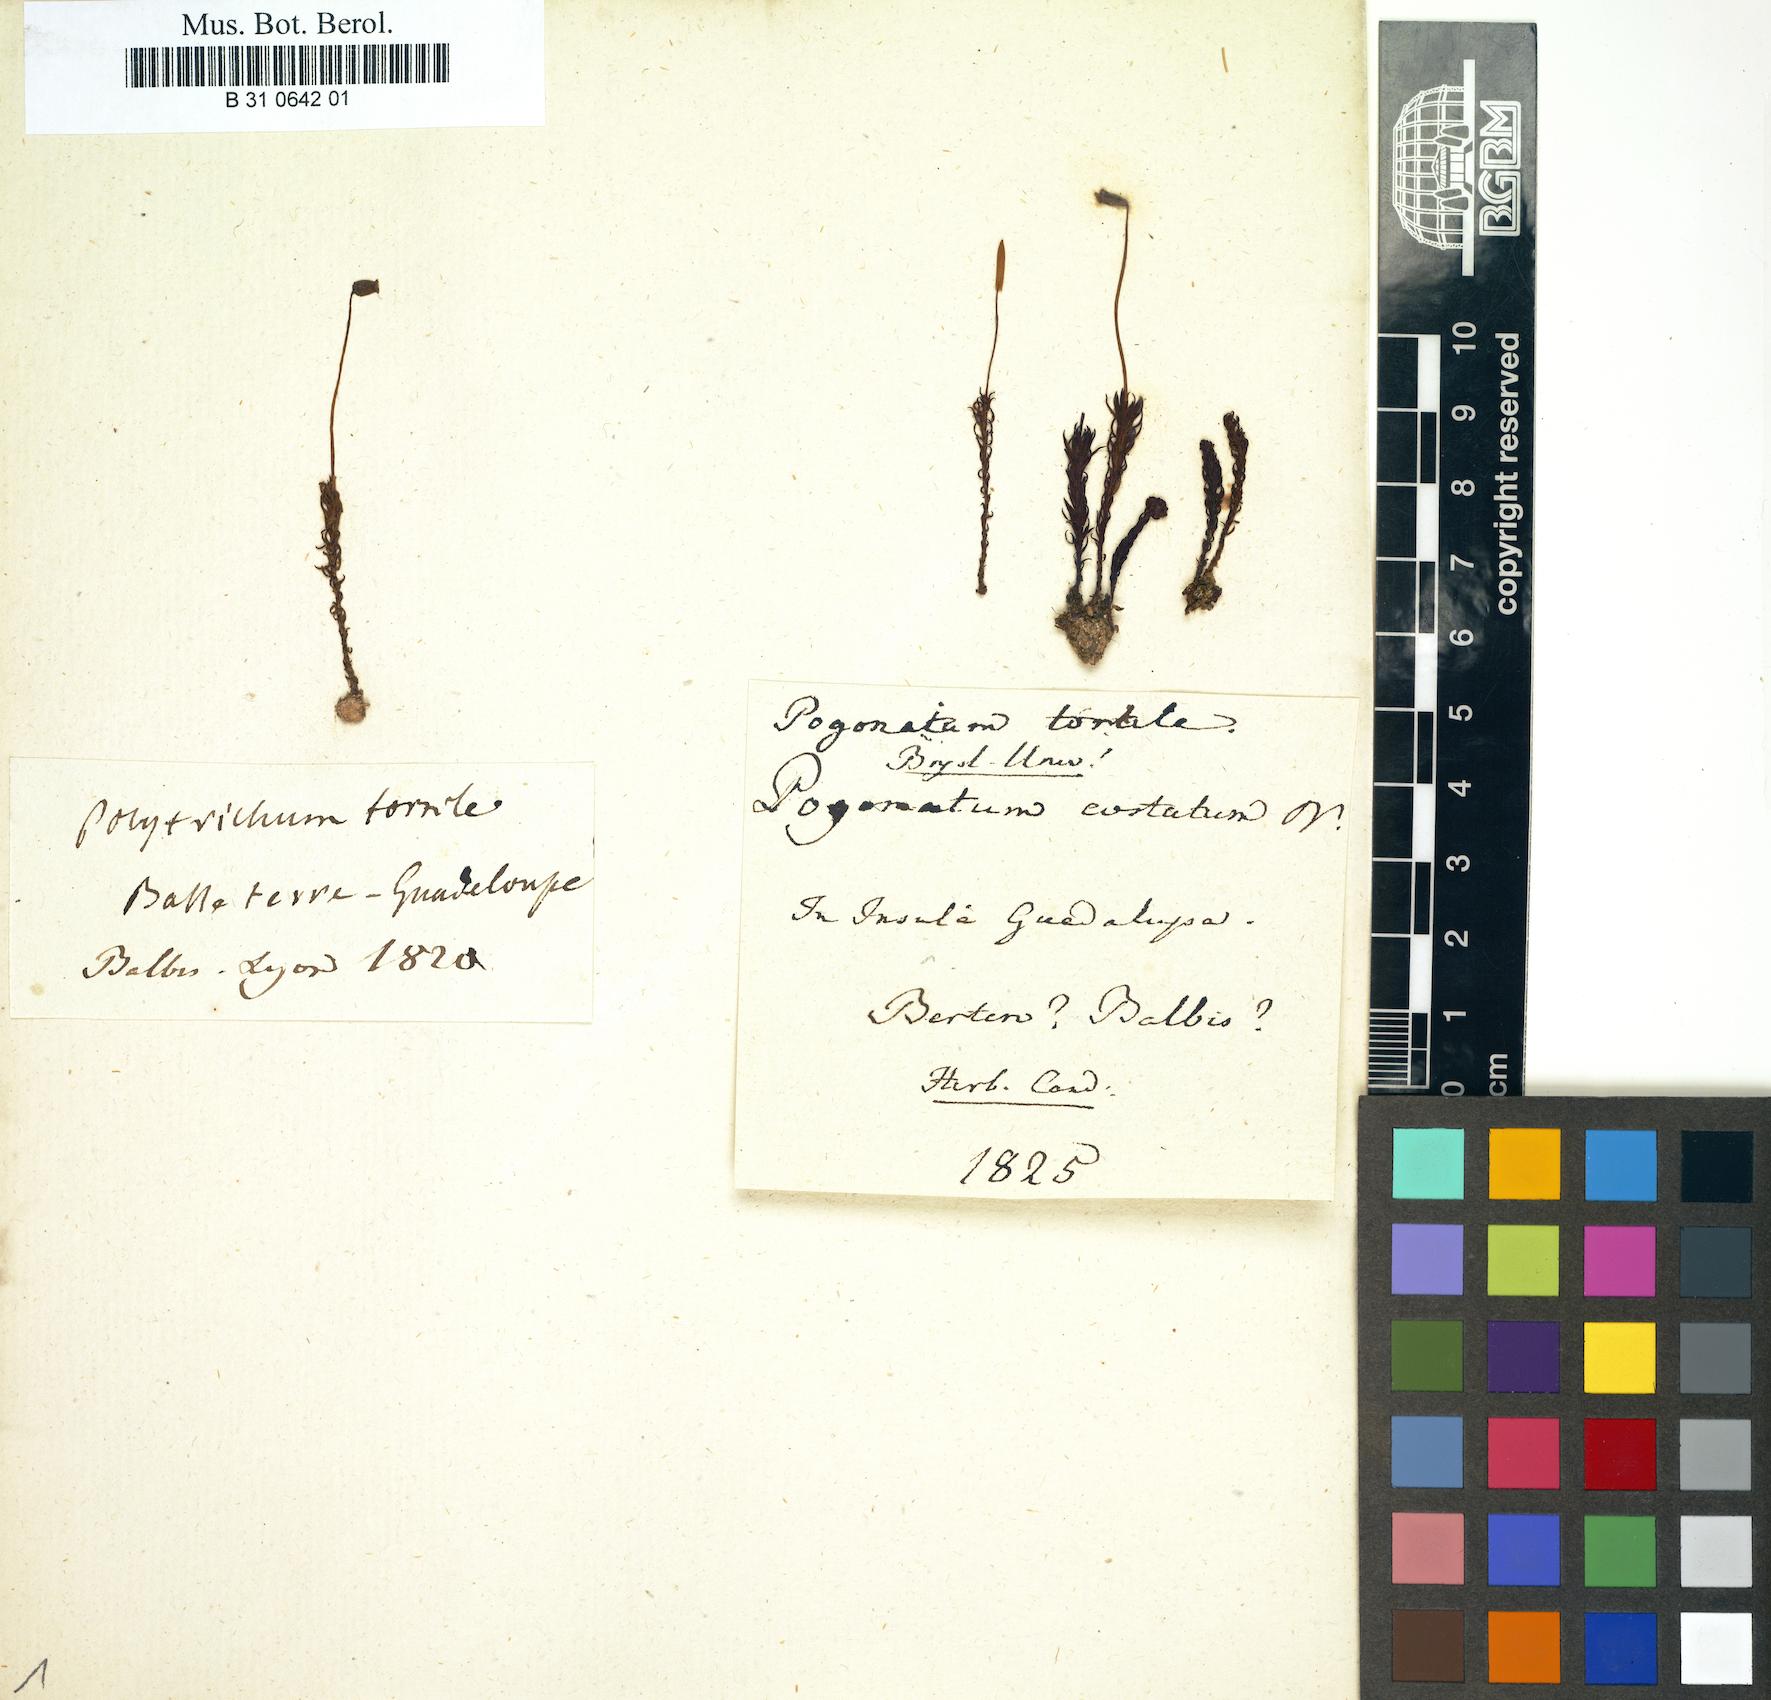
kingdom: Plantae
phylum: Bryophyta
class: Polytrichopsida
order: Polytrichales
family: Polytrichaceae
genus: Pogonatum
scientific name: Pogonatum tortile
